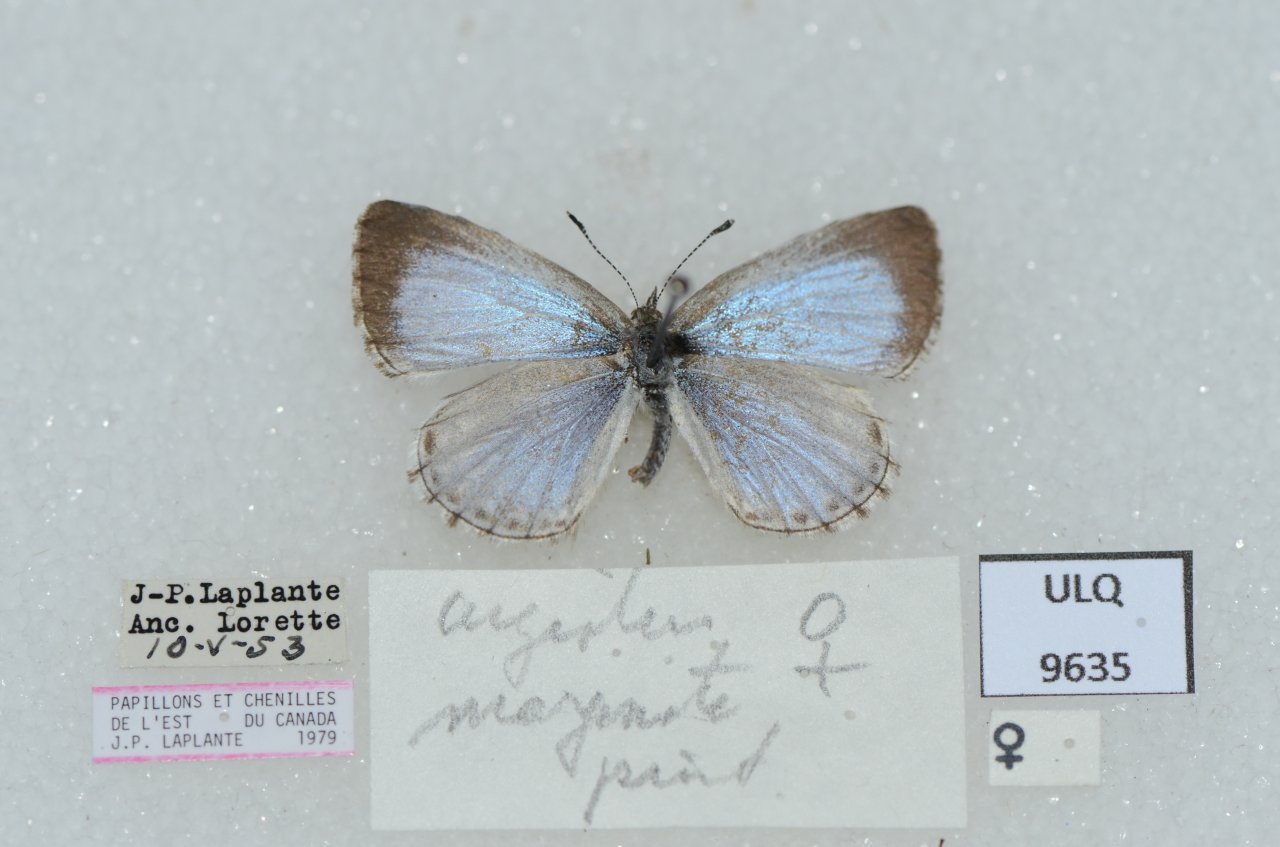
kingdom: Animalia
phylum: Arthropoda
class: Insecta
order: Lepidoptera
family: Lycaenidae
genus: Celastrina
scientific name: Celastrina lucia
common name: Northern Spring Azure
